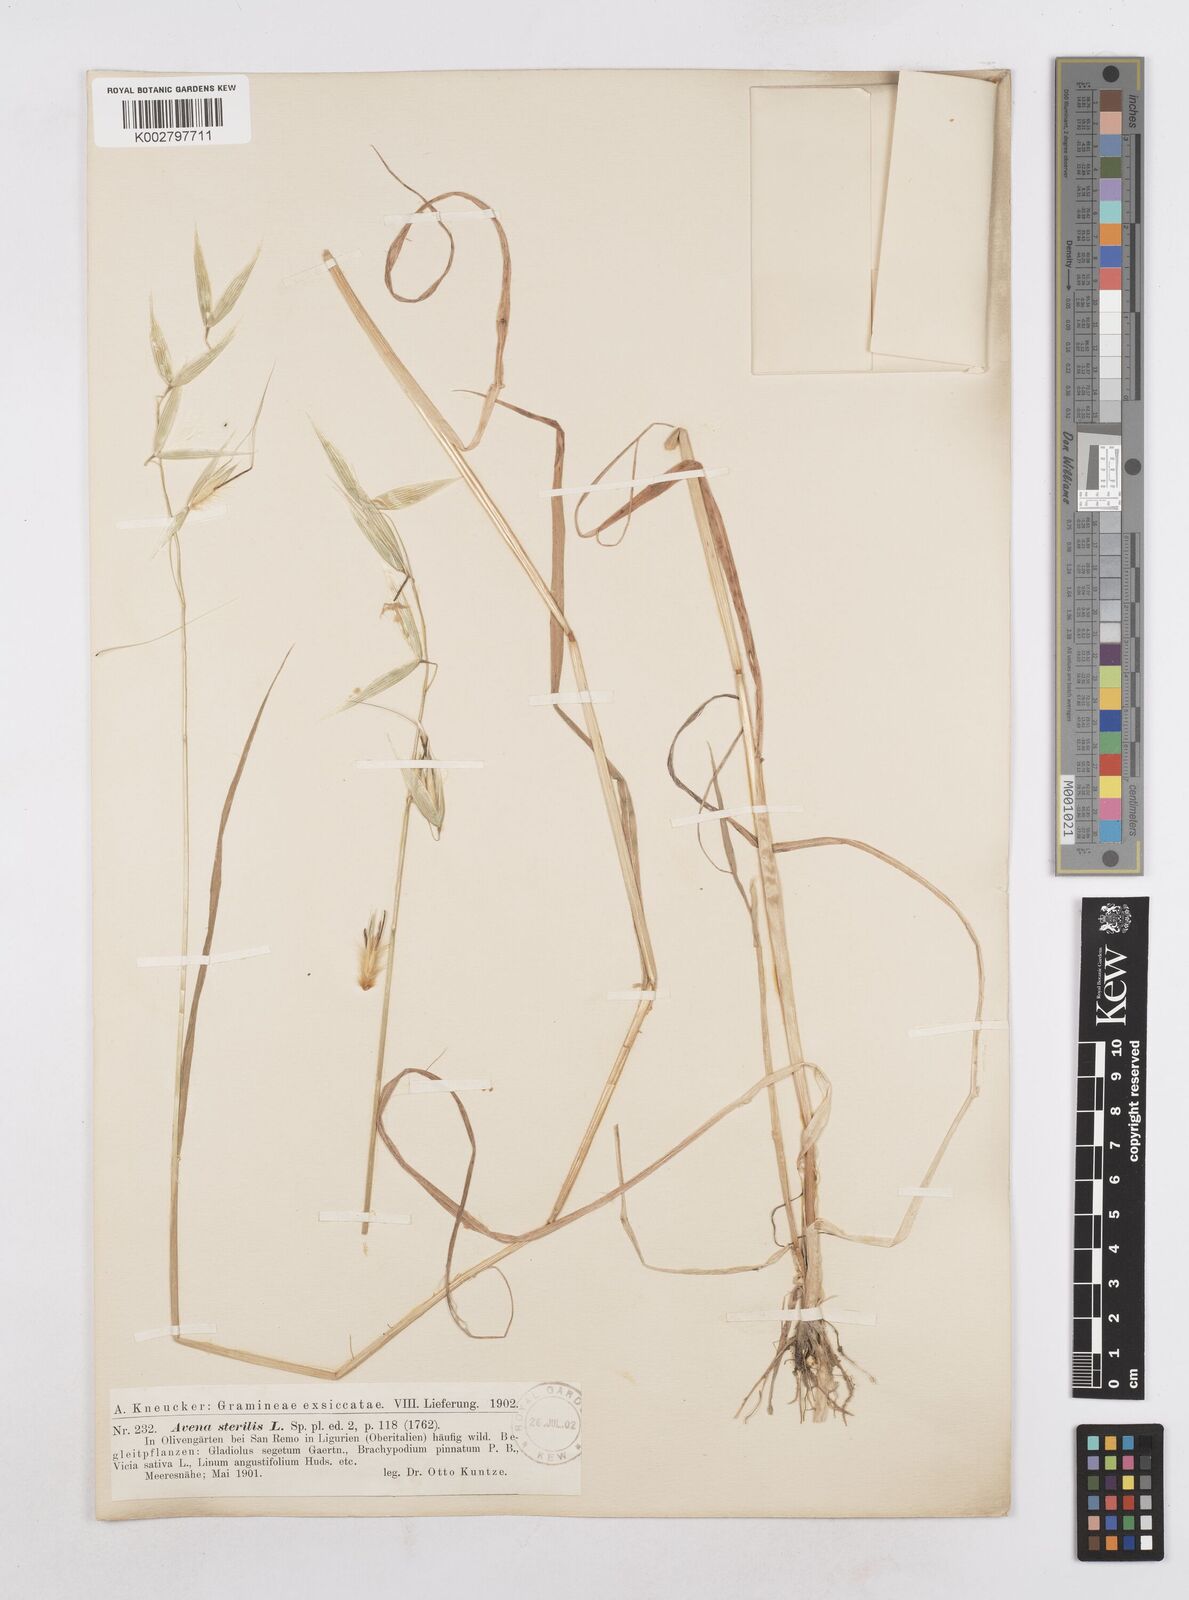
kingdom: Plantae
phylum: Tracheophyta
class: Liliopsida
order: Poales
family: Poaceae
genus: Avena
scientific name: Avena sterilis
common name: Animated oat
